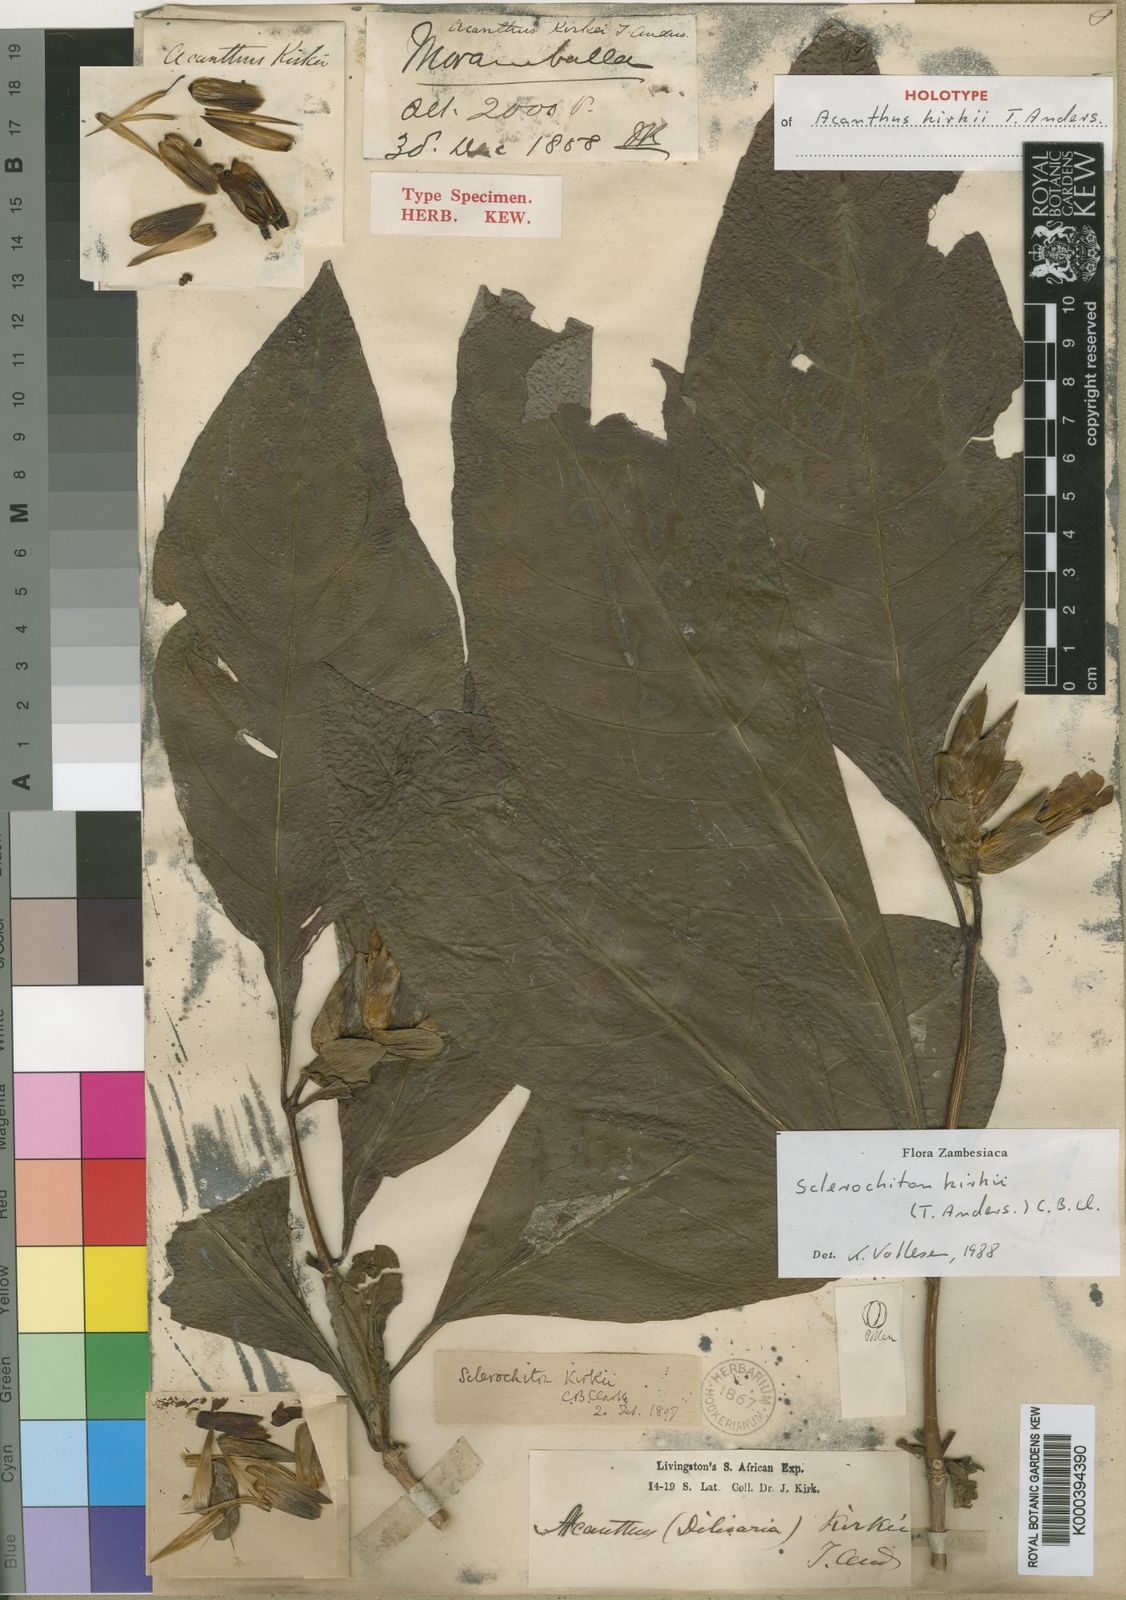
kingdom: Plantae
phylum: Tracheophyta
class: Magnoliopsida
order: Lamiales
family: Acanthaceae
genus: Sclerochiton
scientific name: Sclerochiton kirkii
